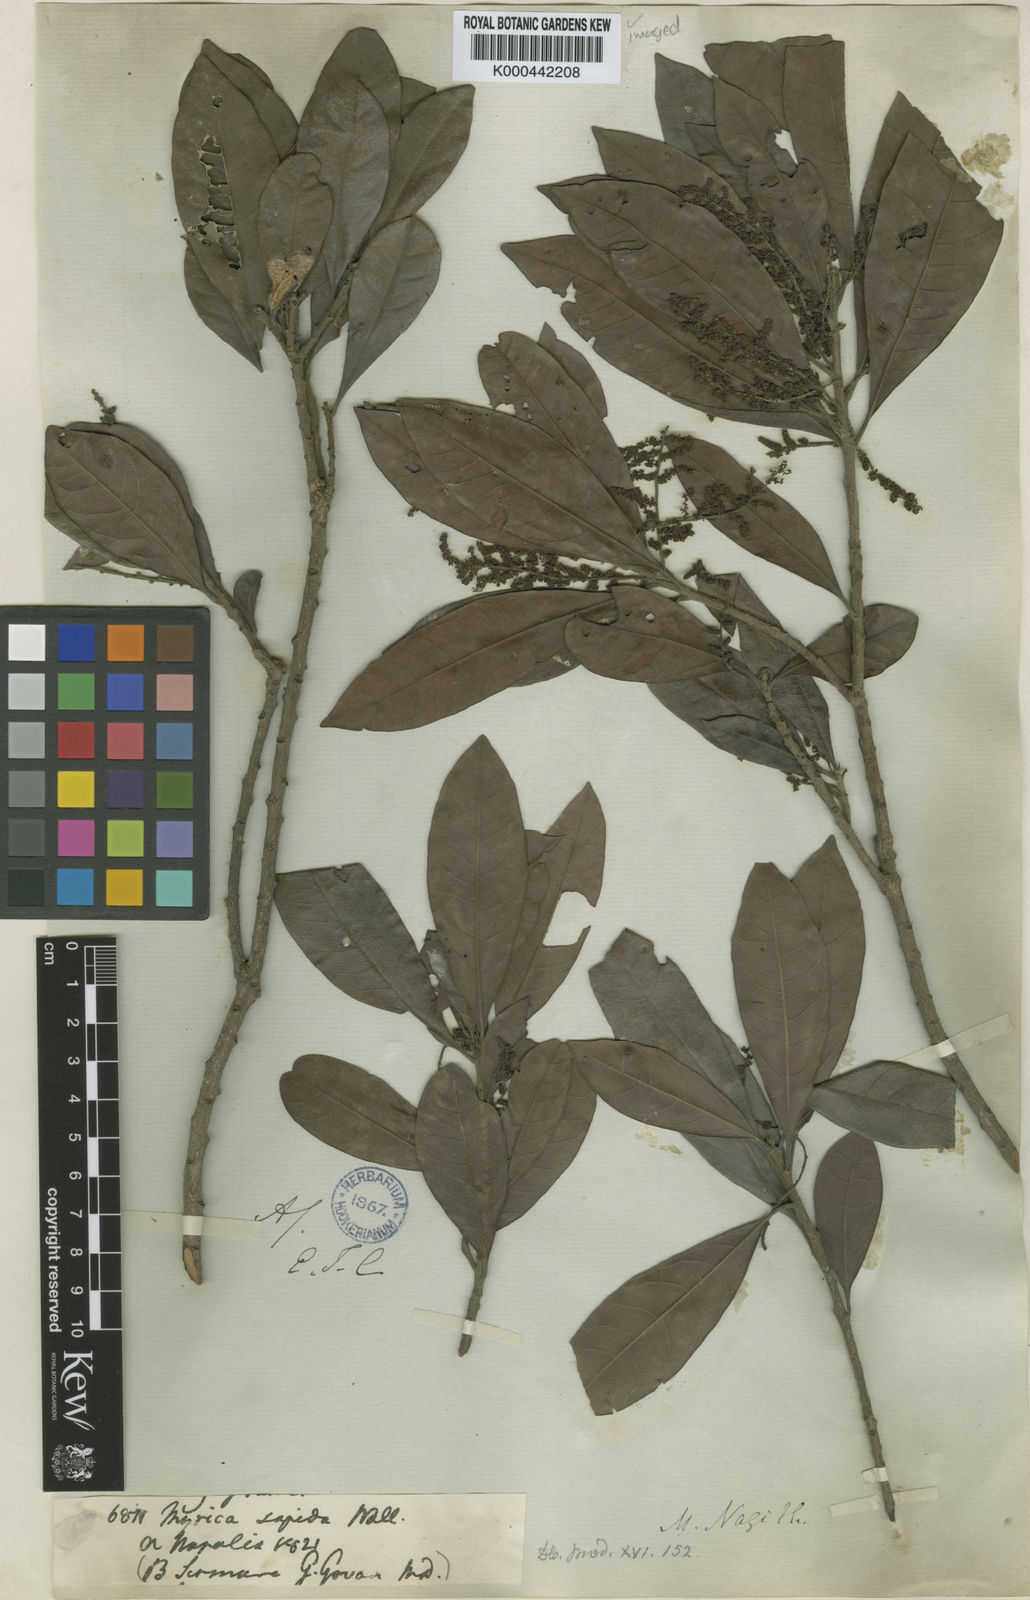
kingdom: Plantae
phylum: Tracheophyta
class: Magnoliopsida
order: Fagales
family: Myricaceae
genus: Morella
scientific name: Morella esculenta
